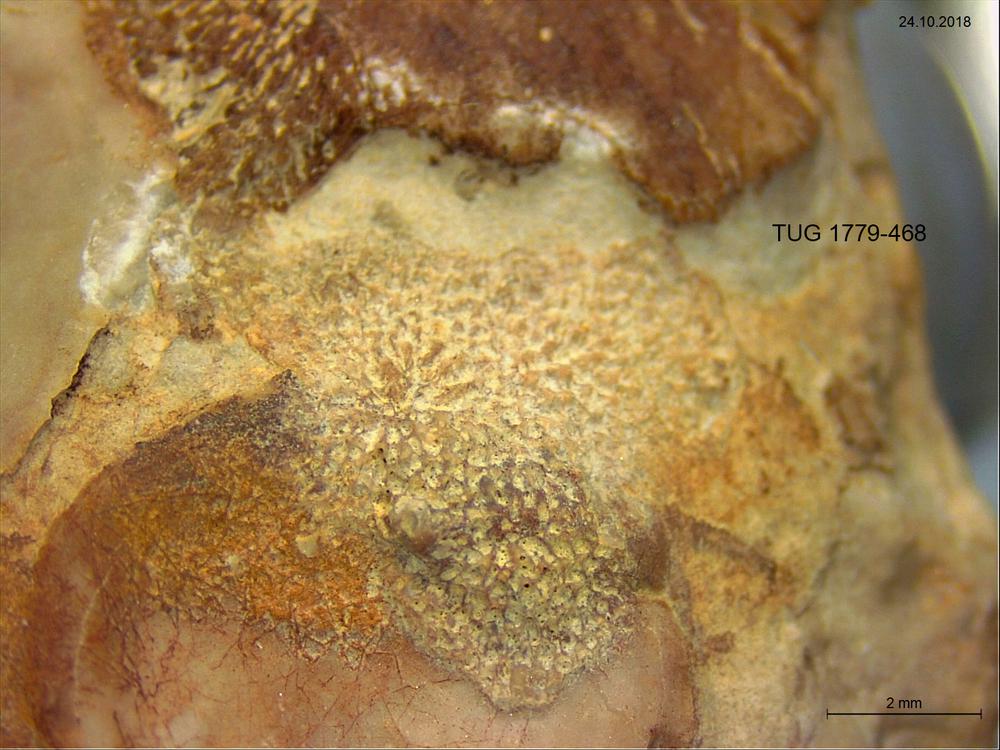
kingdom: Animalia
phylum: Bryozoa
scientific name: Bryozoa
